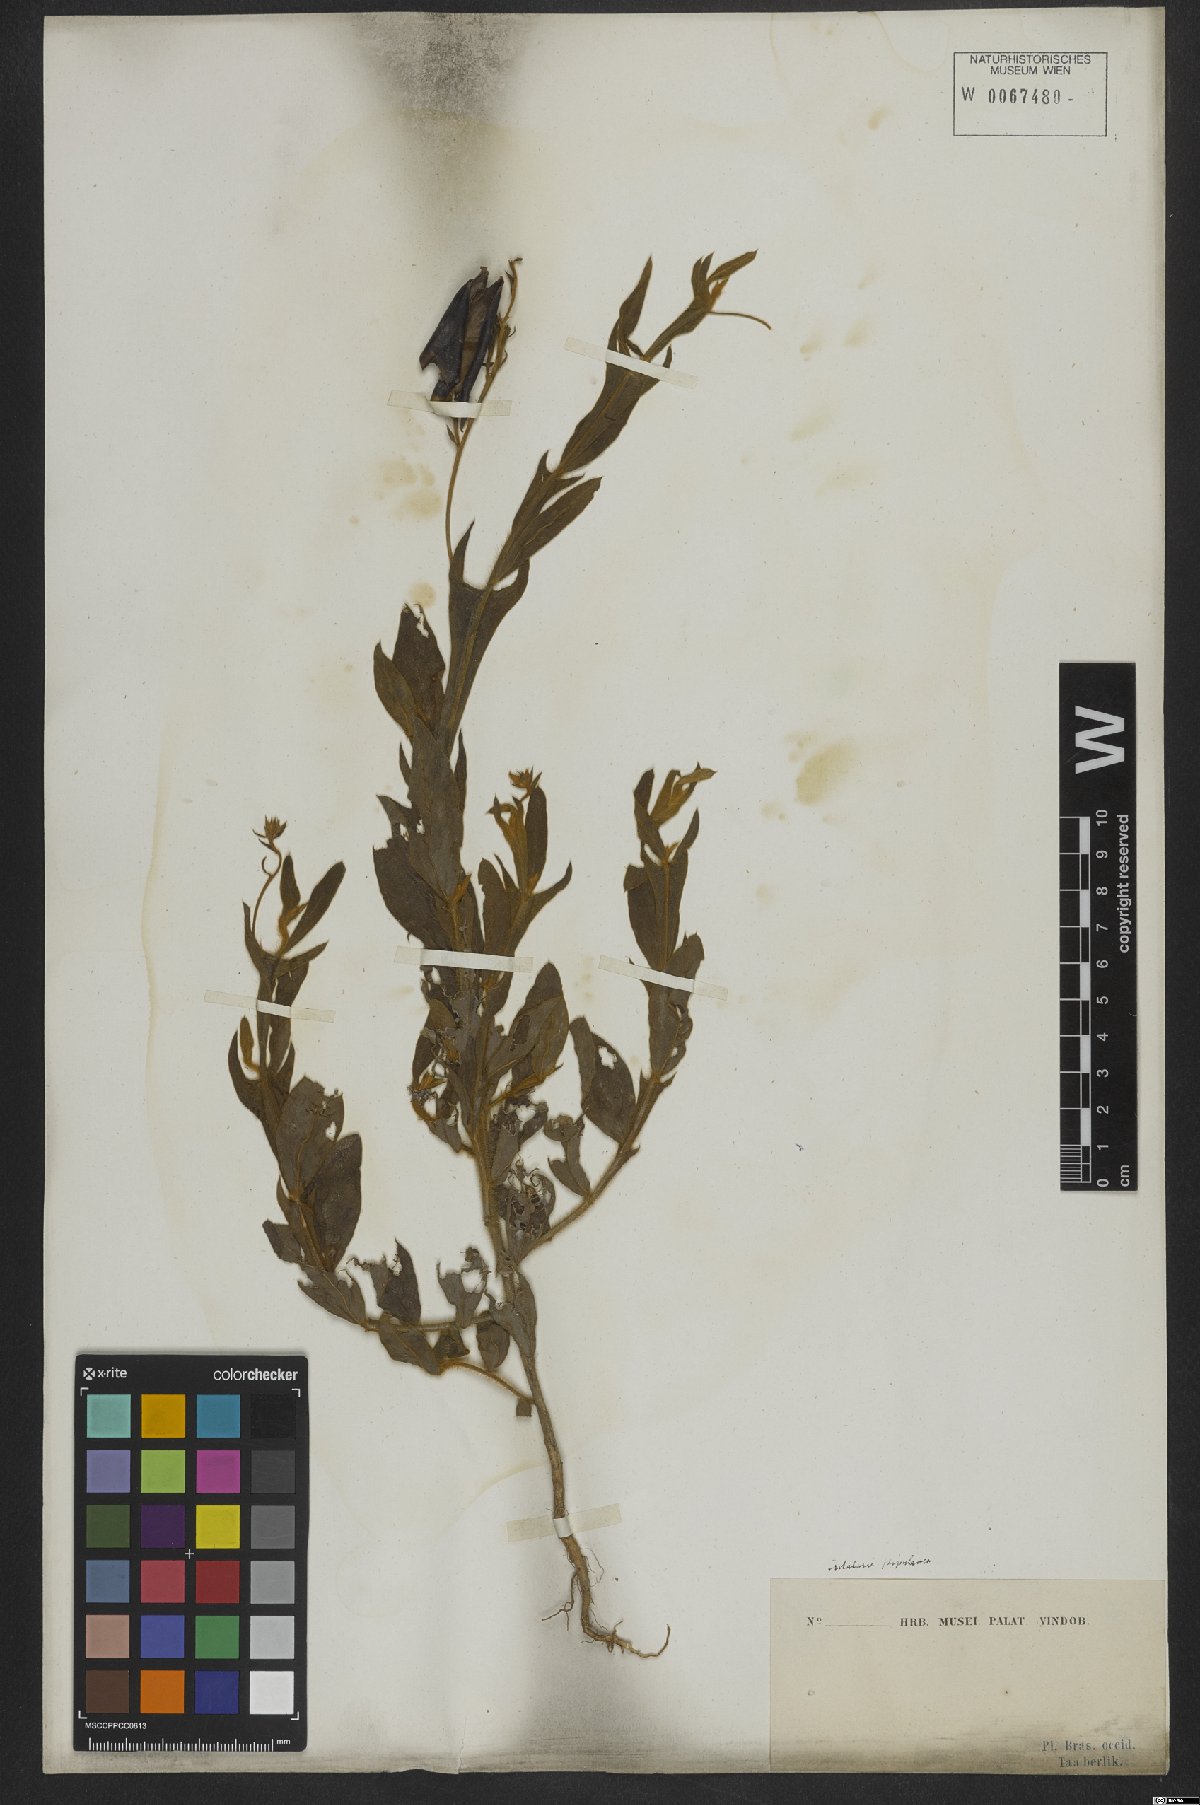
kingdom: Plantae
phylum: Tracheophyta
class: Magnoliopsida
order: Fabales
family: Fabaceae
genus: Crotalaria
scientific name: Crotalaria stipularia
